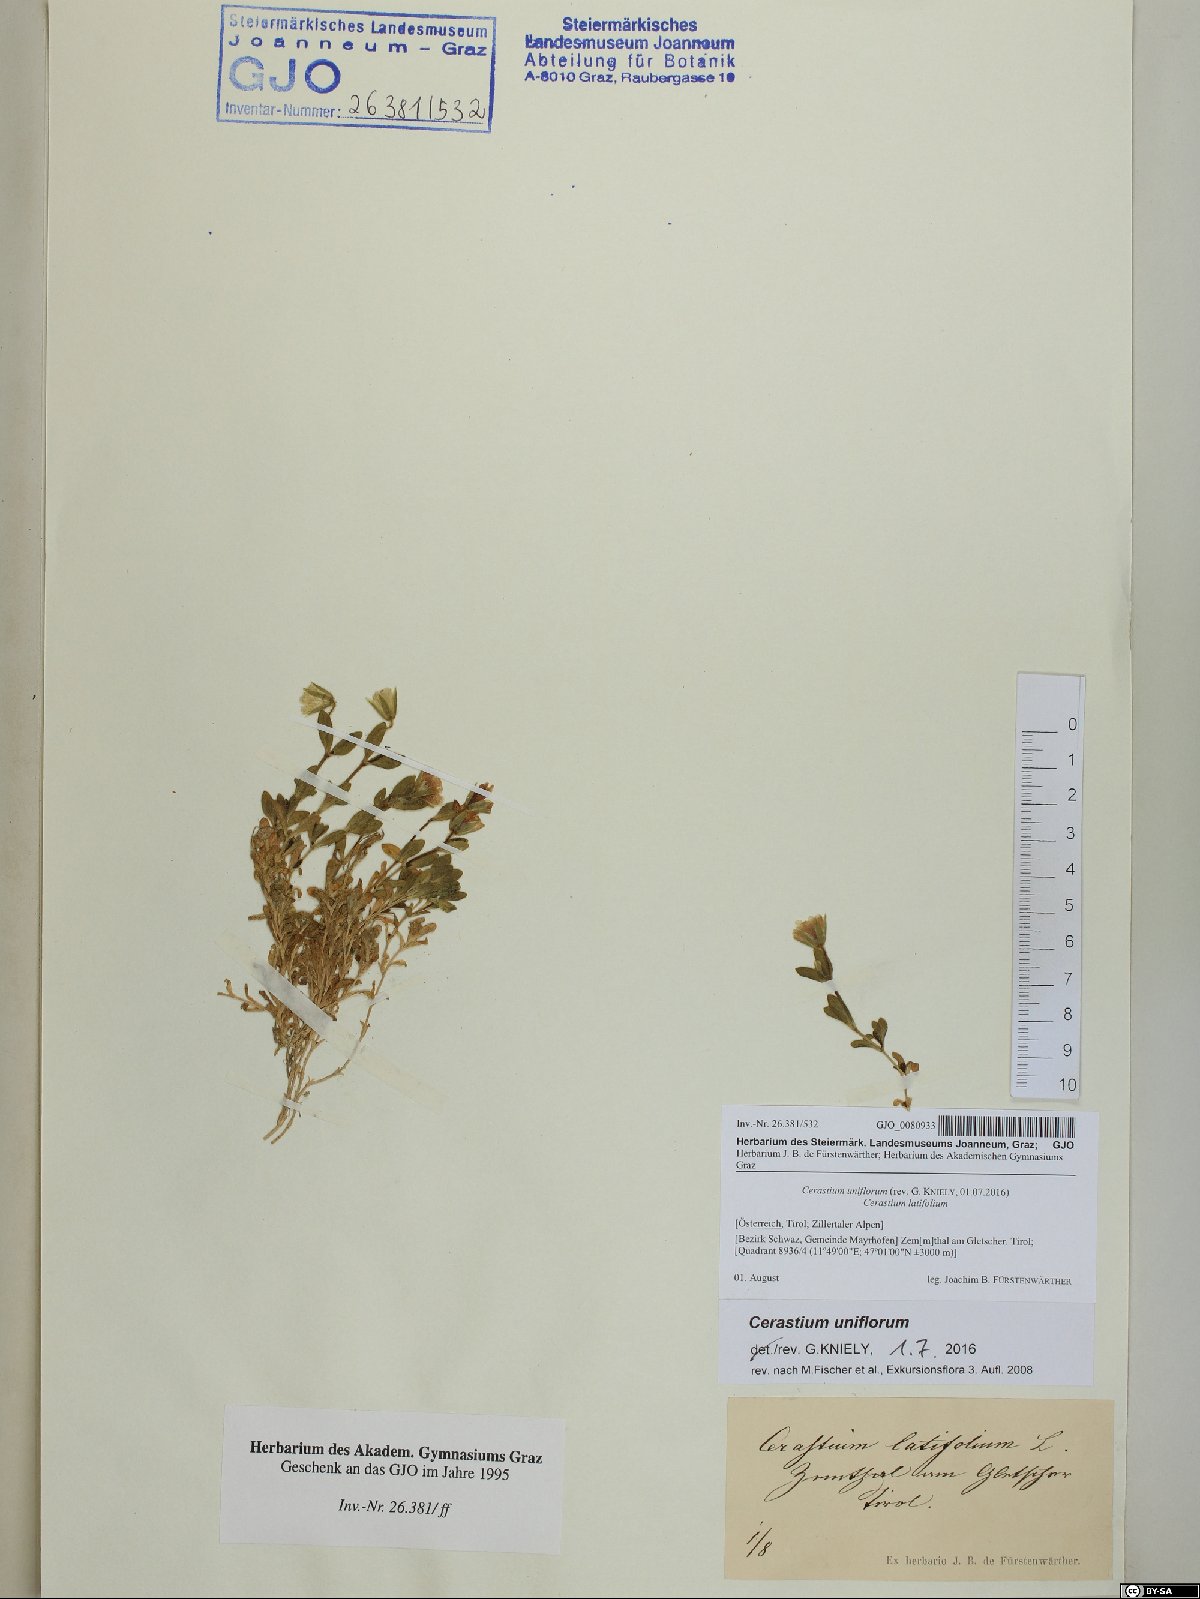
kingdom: Plantae
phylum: Tracheophyta
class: Magnoliopsida
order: Caryophyllales
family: Caryophyllaceae
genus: Cerastium
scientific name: Cerastium uniflorum
